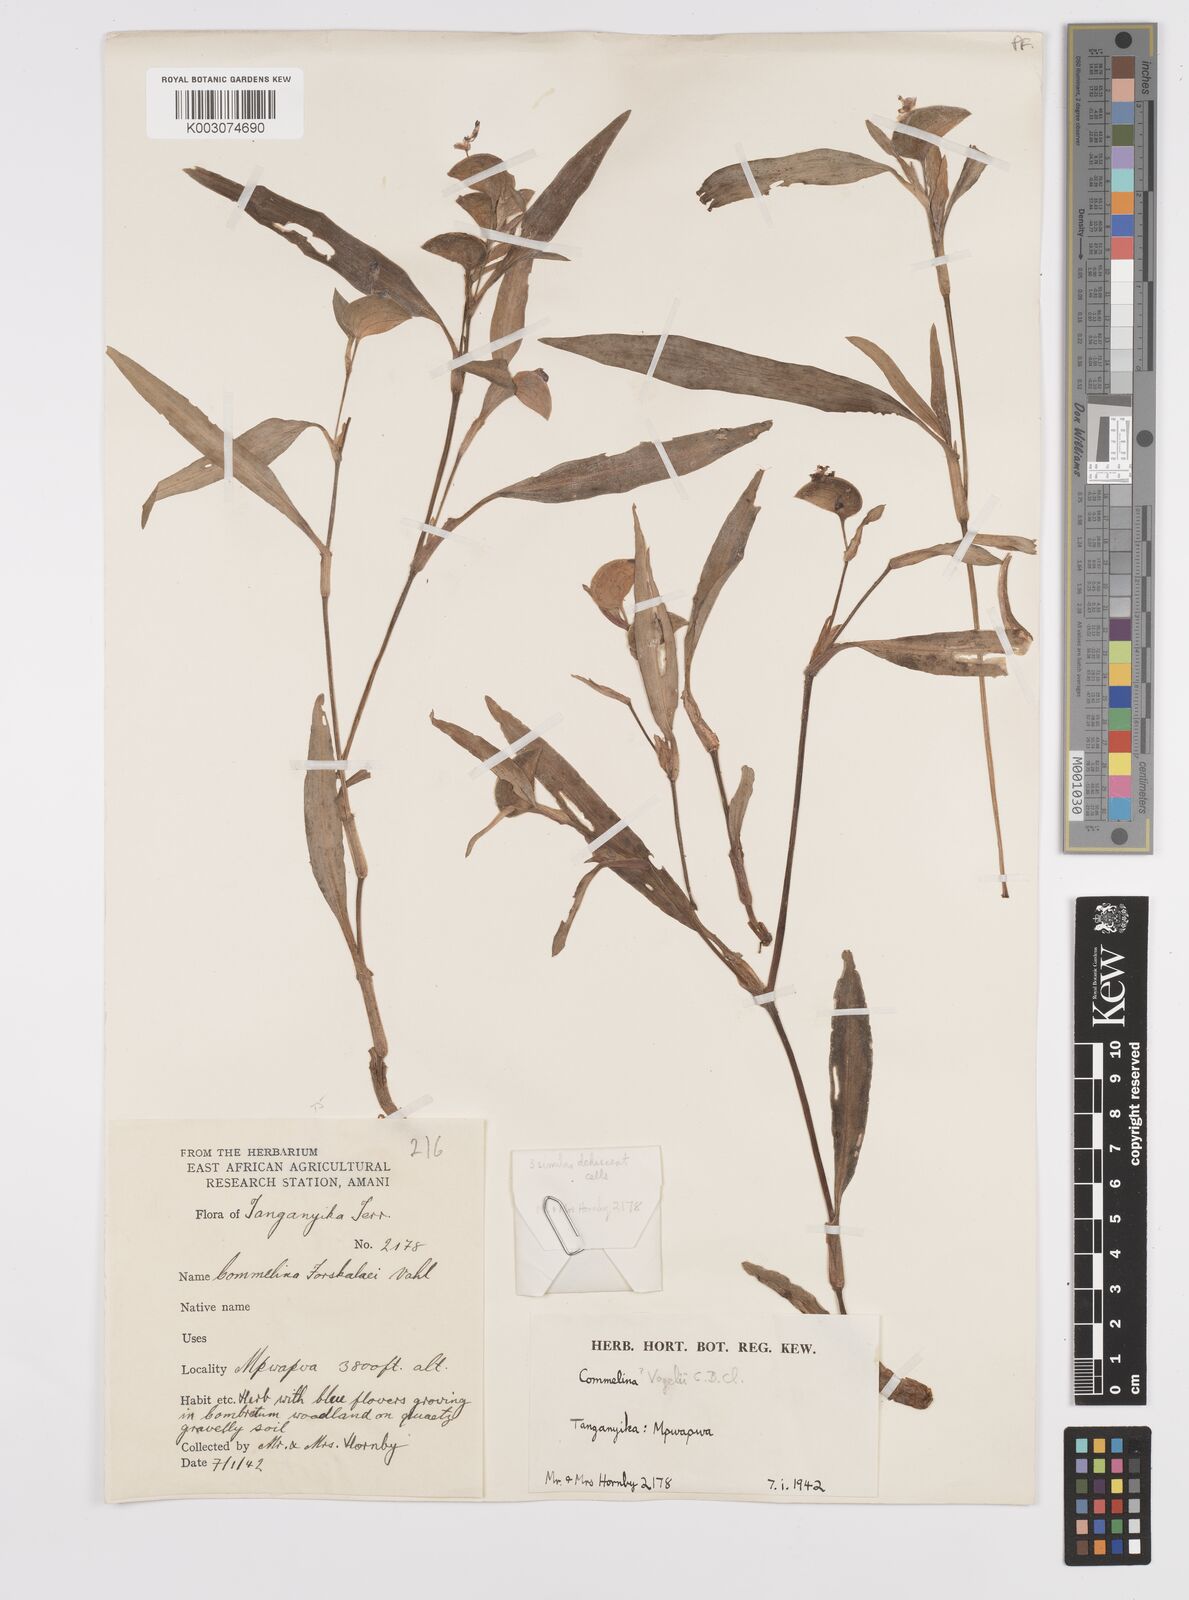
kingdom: Plantae
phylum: Tracheophyta
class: Liliopsida
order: Commelinales
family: Commelinaceae
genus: Commelina
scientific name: Commelina bracteosa
